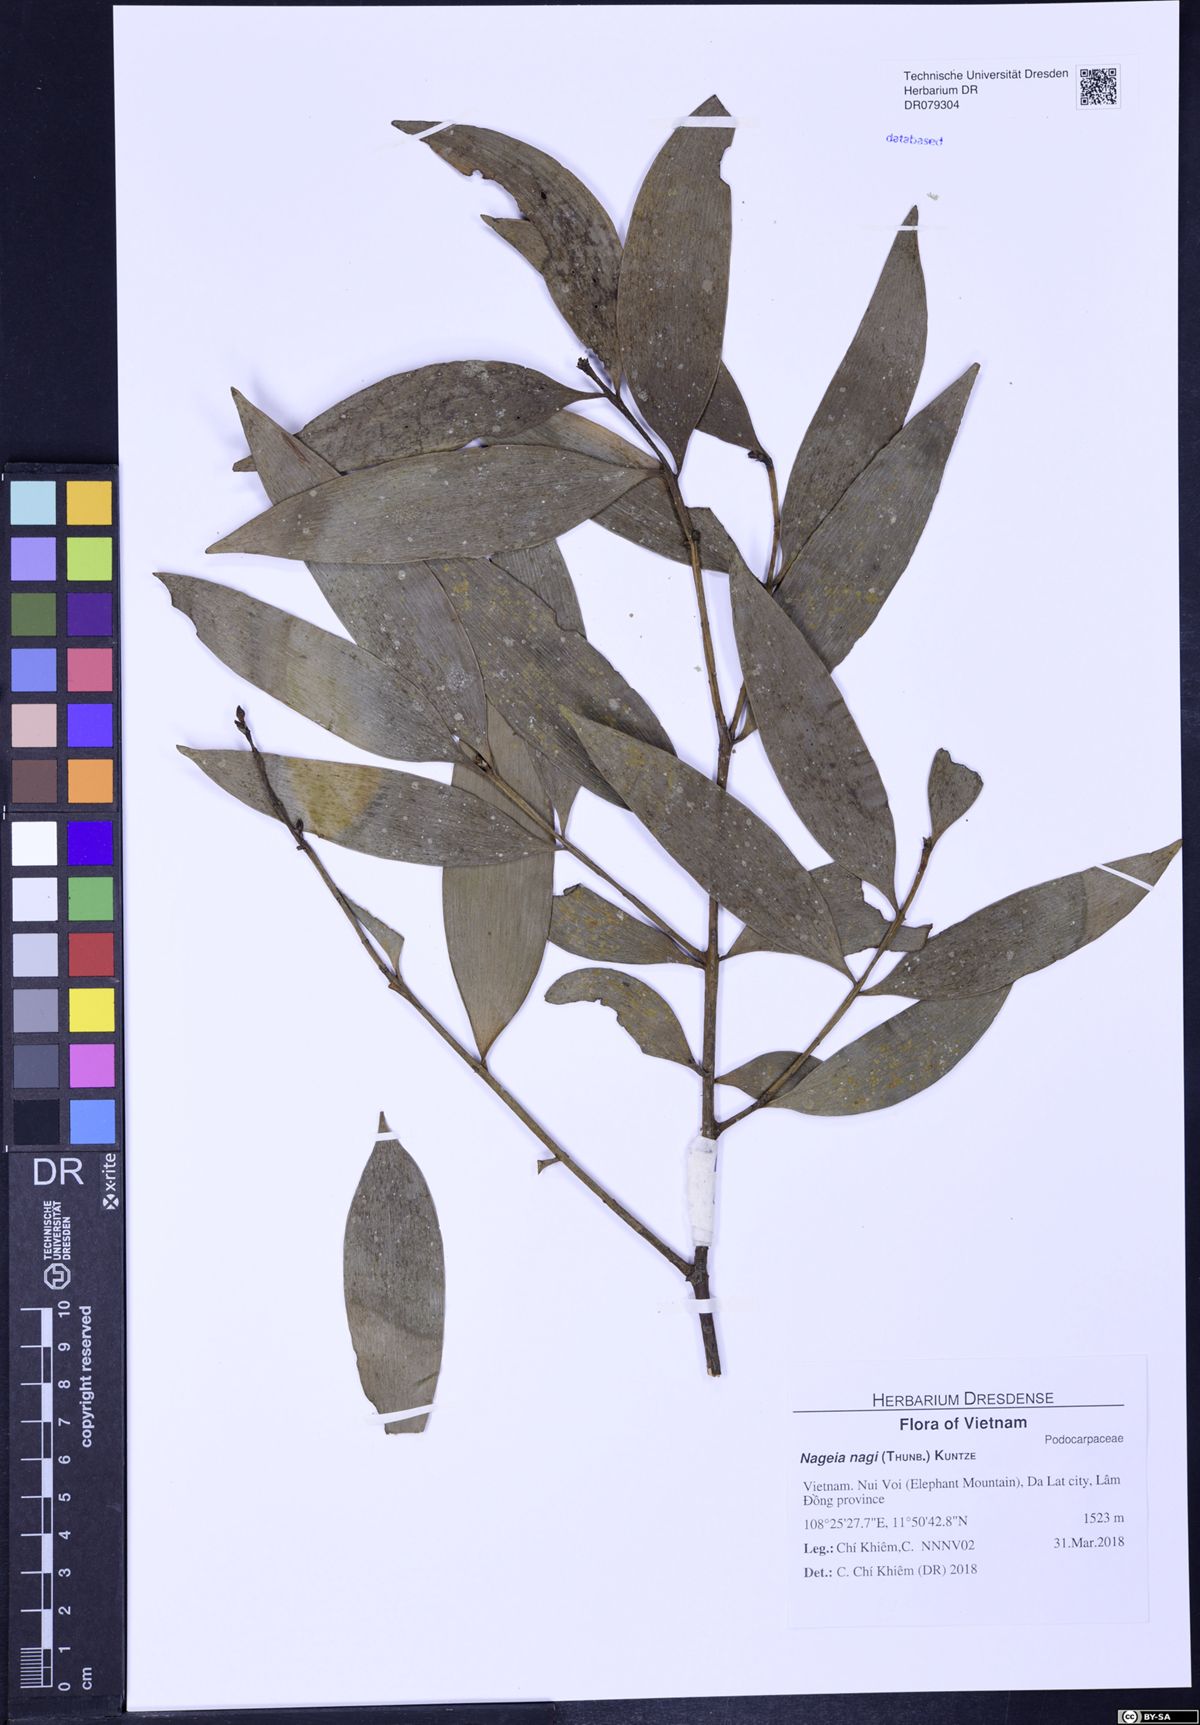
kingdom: Plantae
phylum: Tracheophyta
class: Pinopsida
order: Pinales
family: Podocarpaceae
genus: Nageia
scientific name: Nageia nagi
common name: Kaphal
